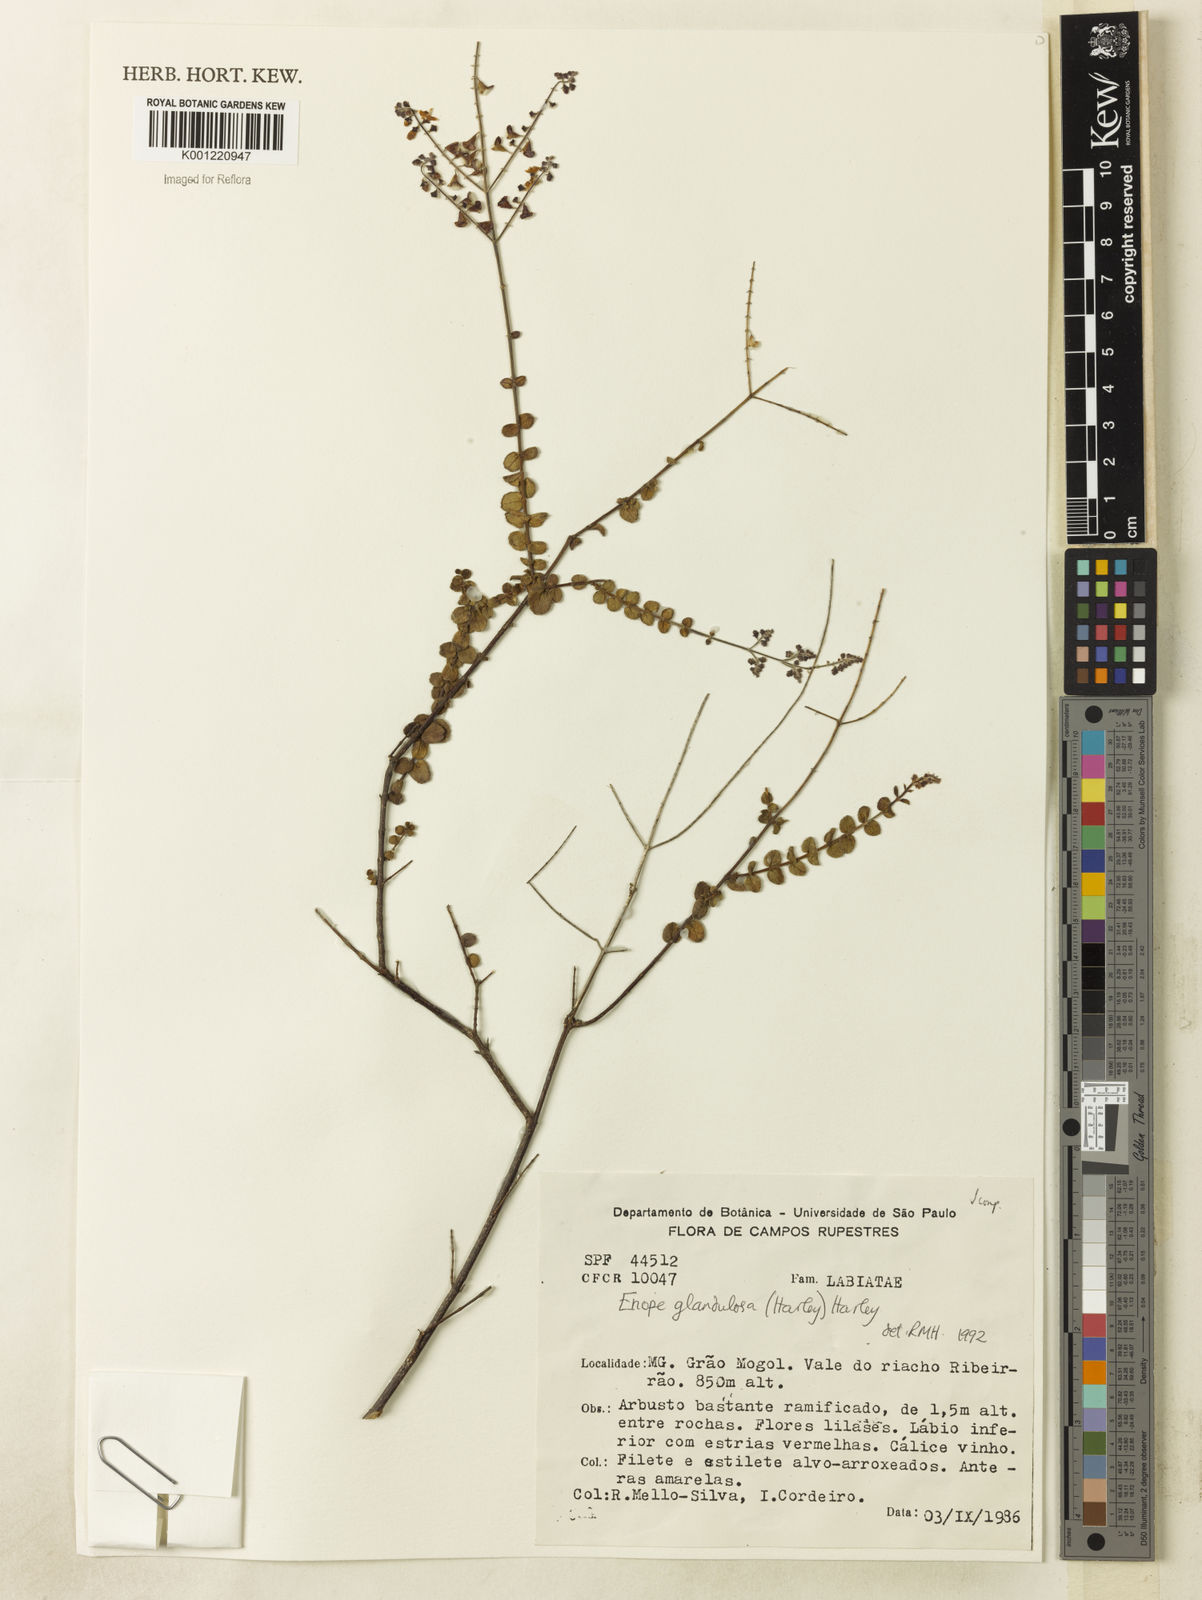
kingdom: Plantae
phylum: Tracheophyta
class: Magnoliopsida
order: Lamiales
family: Lamiaceae
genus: Eriope
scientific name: Eriope glandulosa
